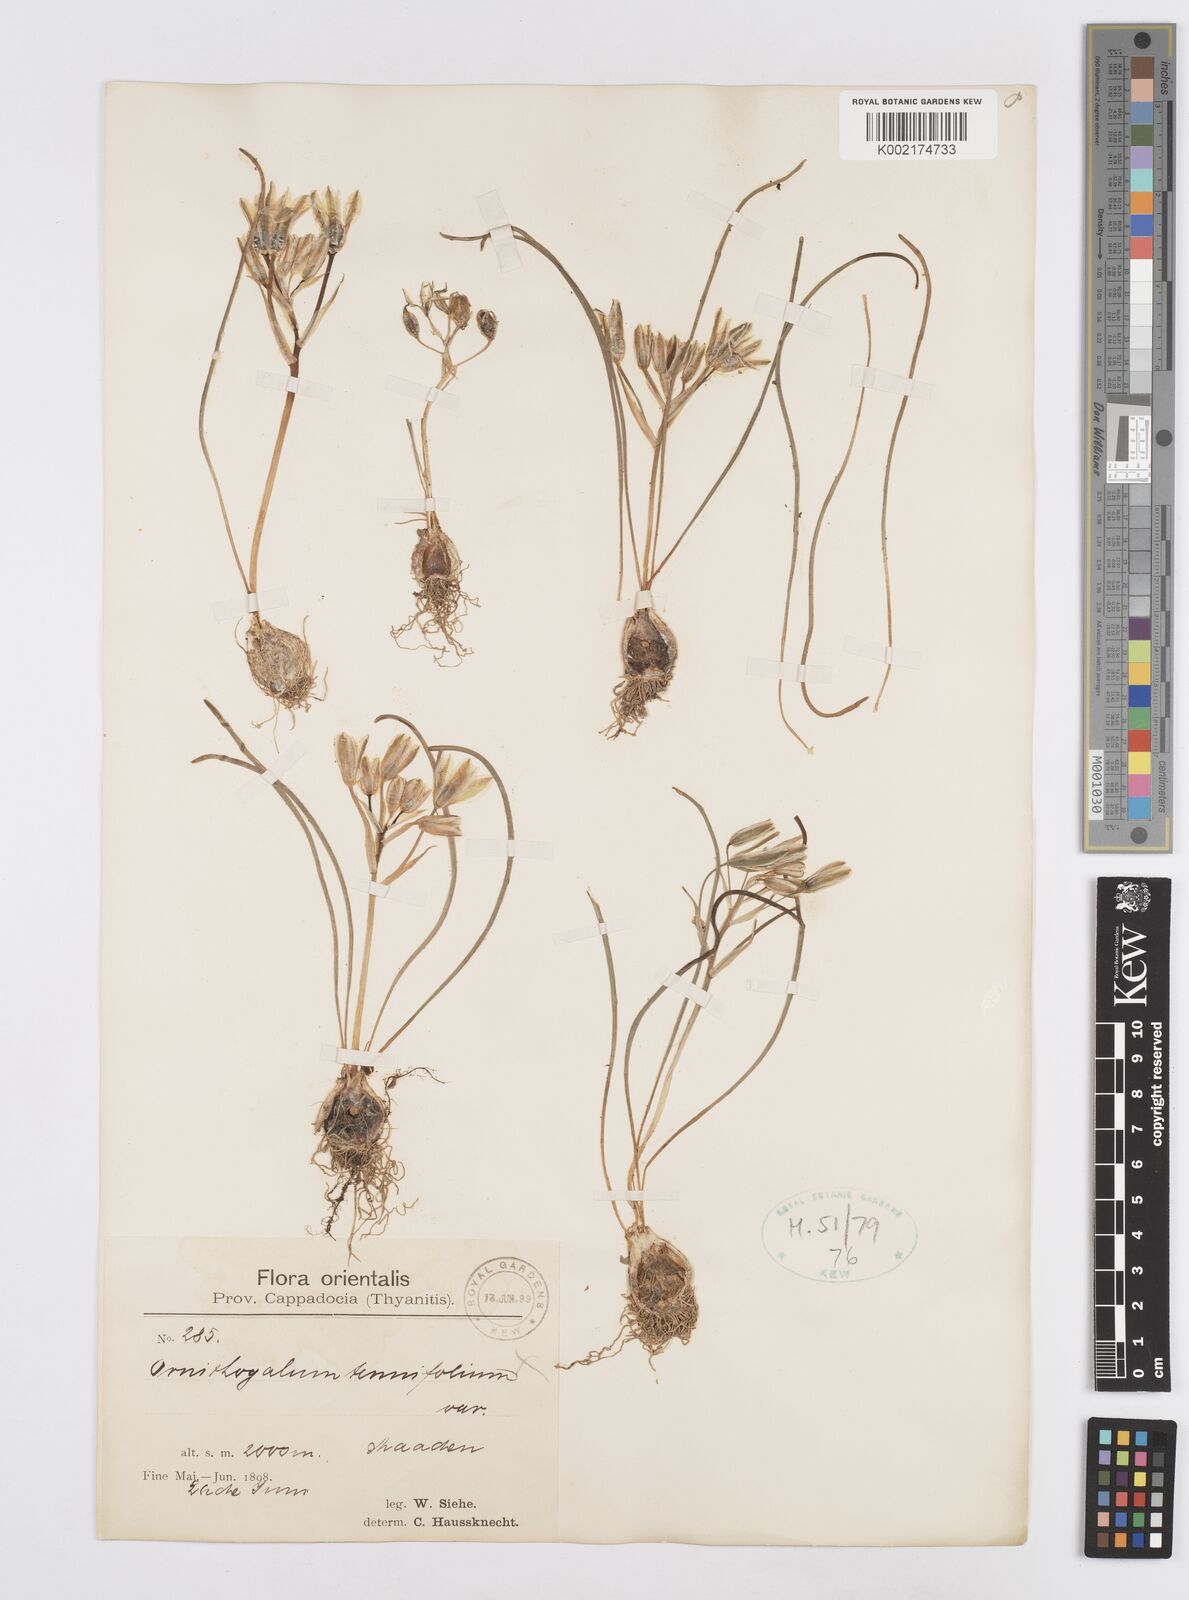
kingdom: Plantae
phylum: Tracheophyta
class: Liliopsida
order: Asparagales
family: Asparagaceae
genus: Ornithogalum
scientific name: Ornithogalum gussonei
